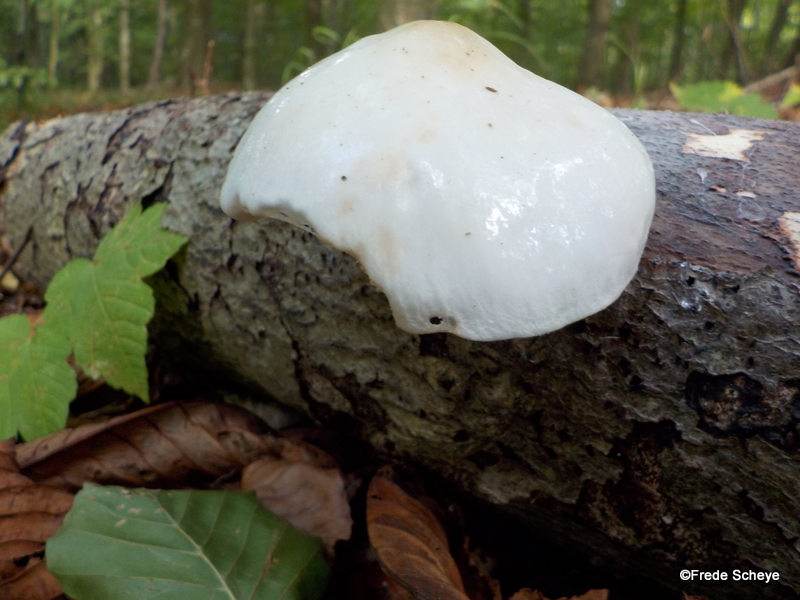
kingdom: Fungi
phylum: Basidiomycota
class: Agaricomycetes
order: Agaricales
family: Physalacriaceae
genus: Mucidula
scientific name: Mucidula mucida
